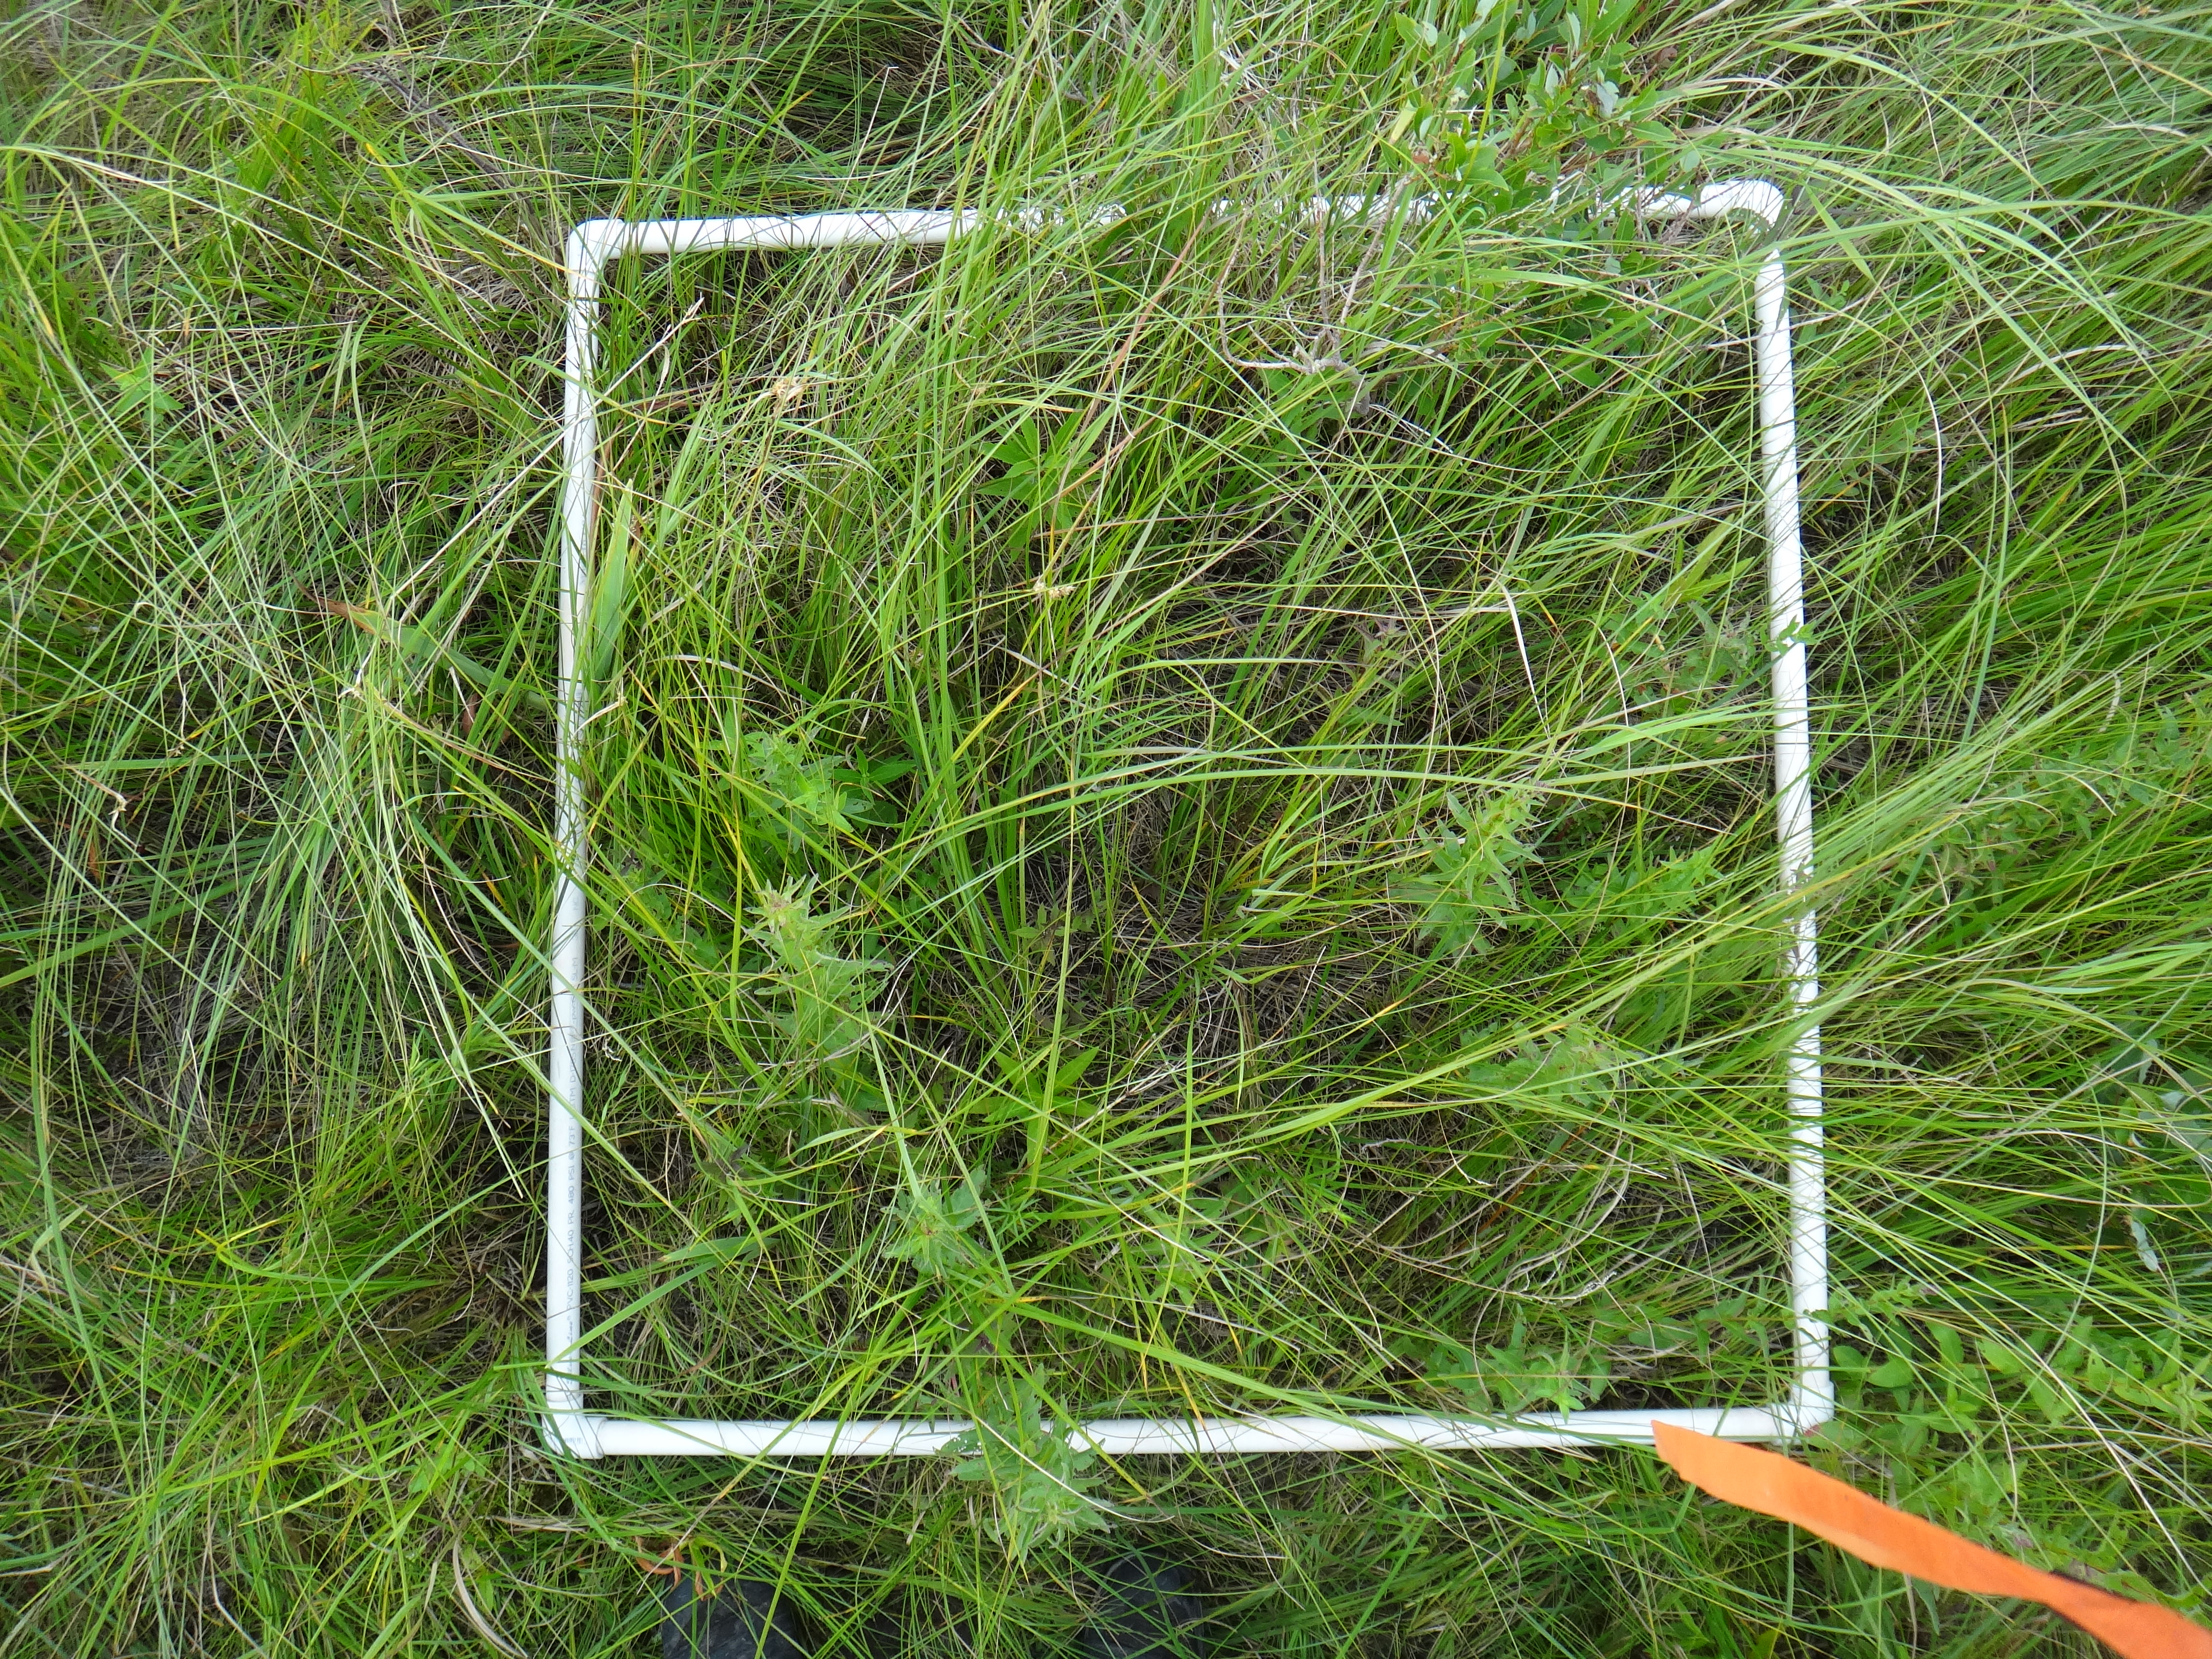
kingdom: Plantae
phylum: Tracheophyta
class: Magnoliopsida
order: Lamiales
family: Lamiaceae
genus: Lycopus
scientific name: Lycopus uniflorus
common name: Northern bugleweed
